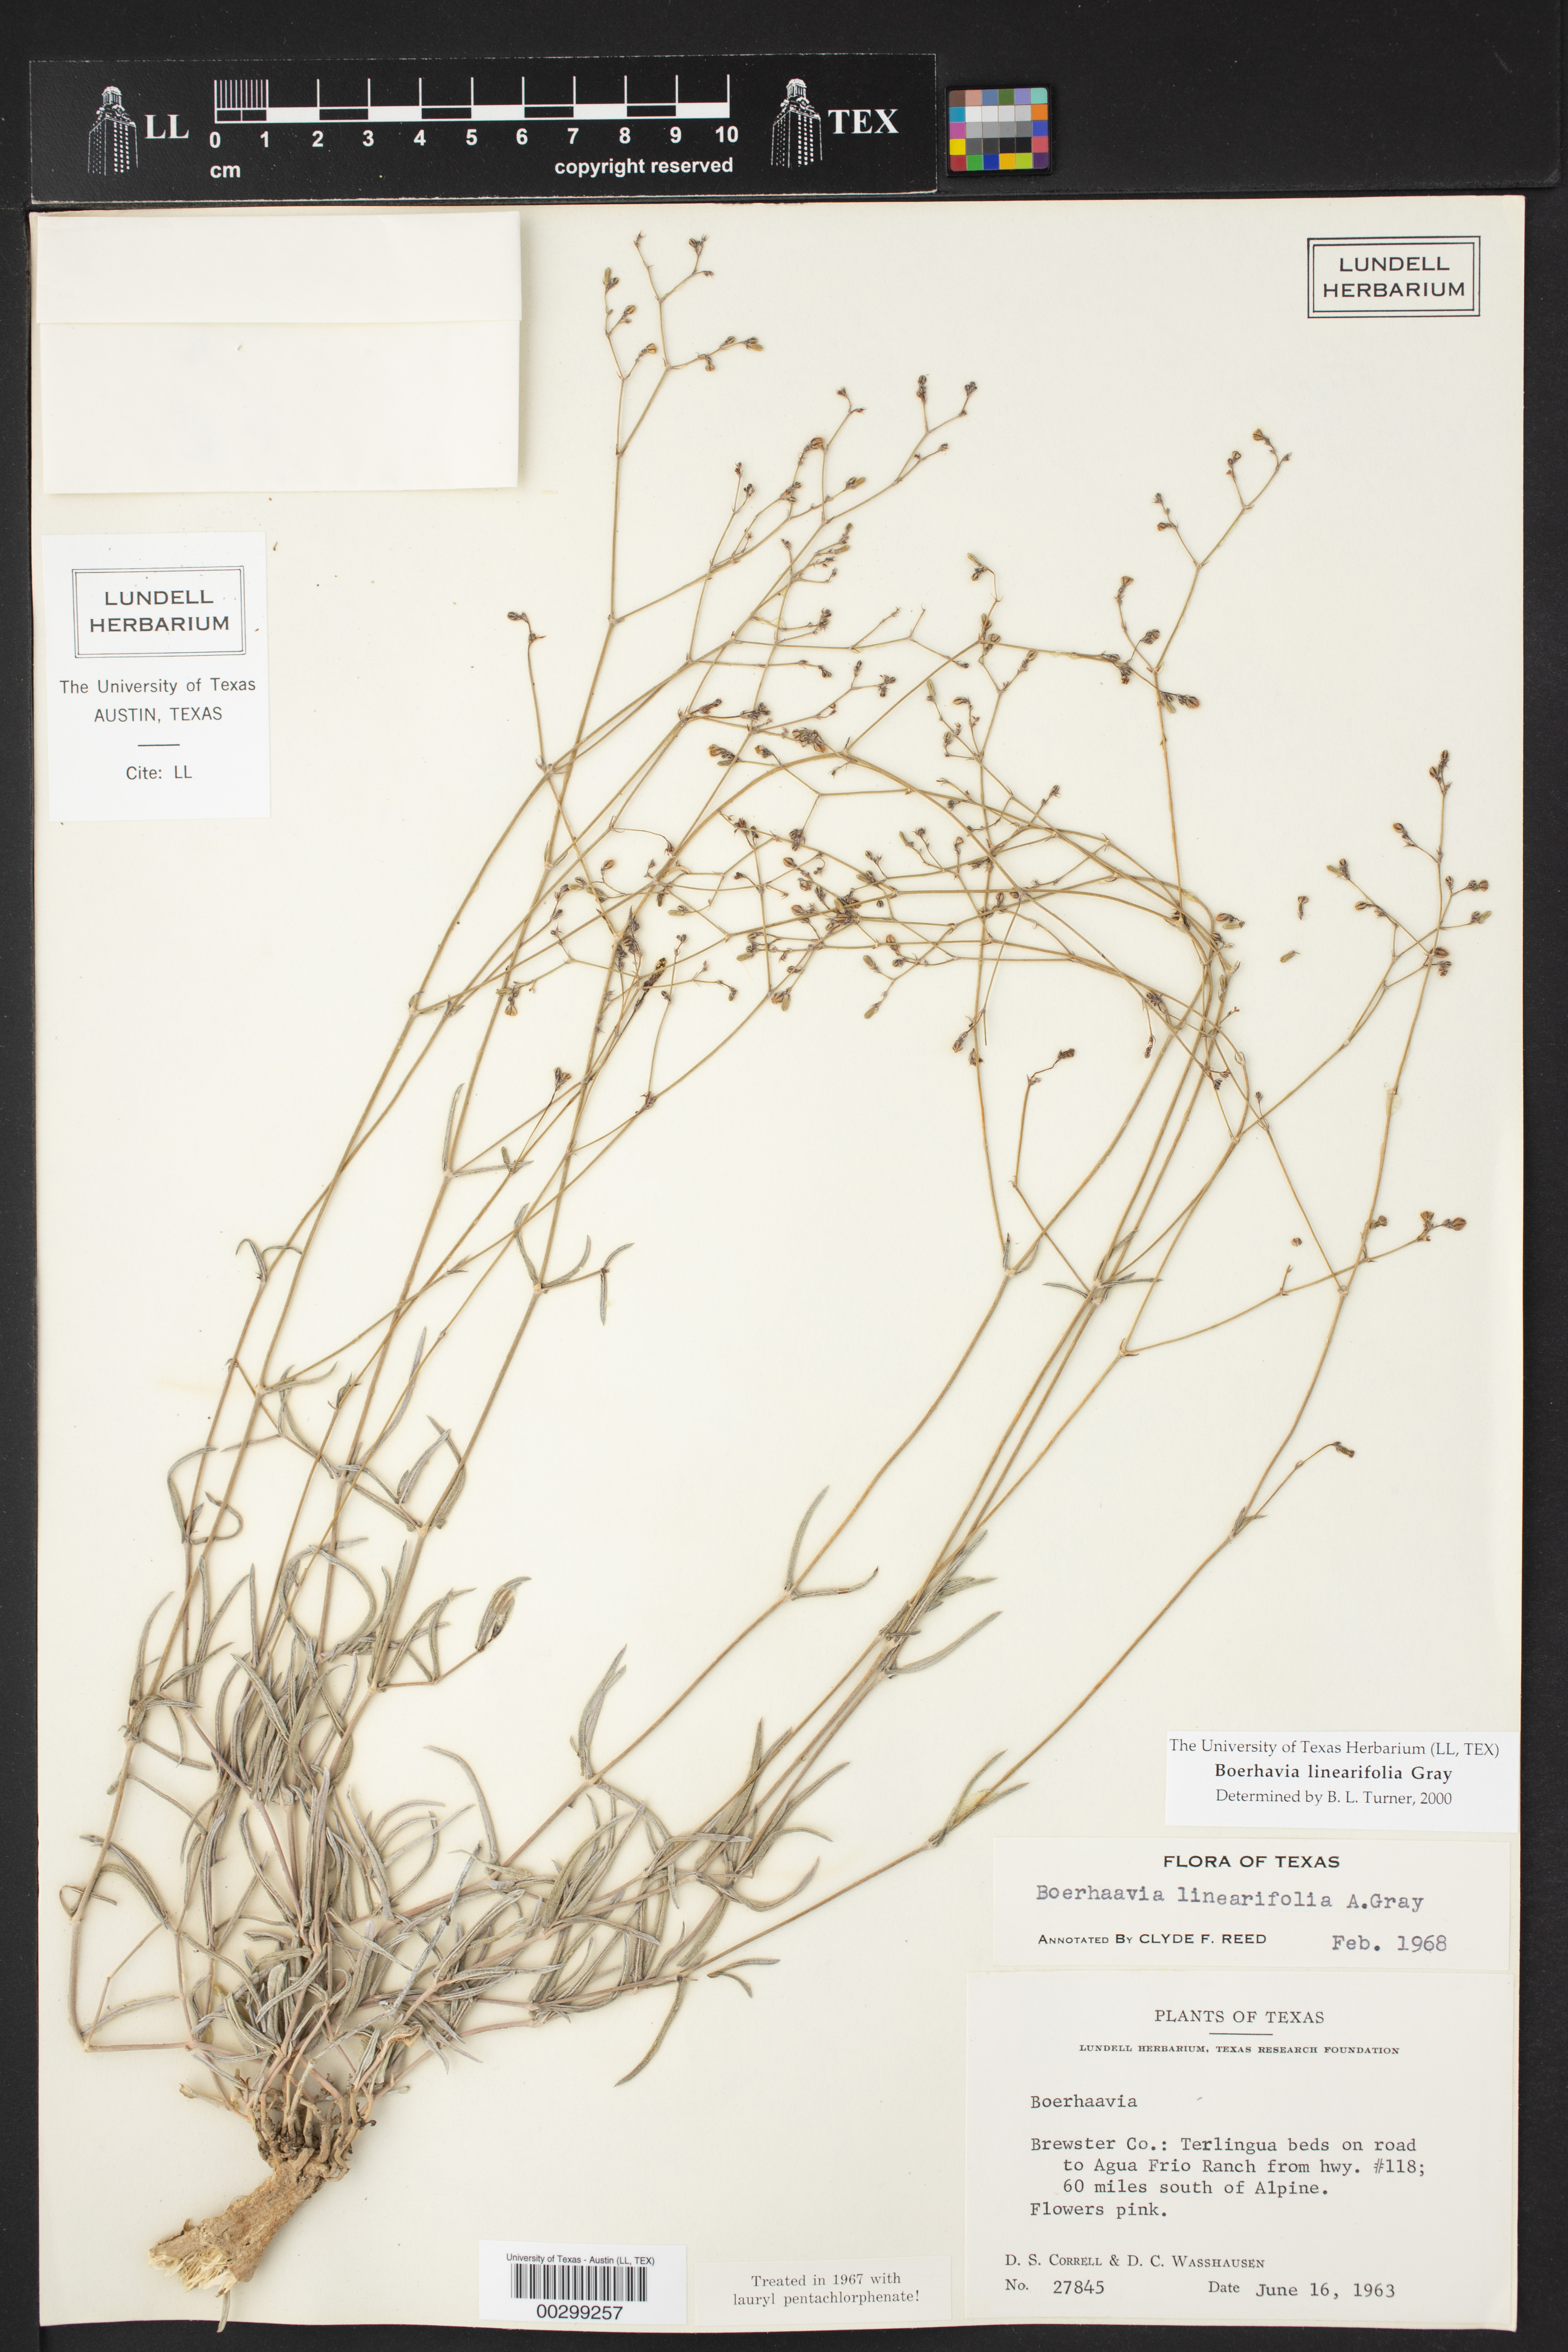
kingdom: Plantae
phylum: Tracheophyta
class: Magnoliopsida
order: Caryophyllales
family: Nyctaginaceae
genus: Boerhavia
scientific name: Boerhavia linearifolia
